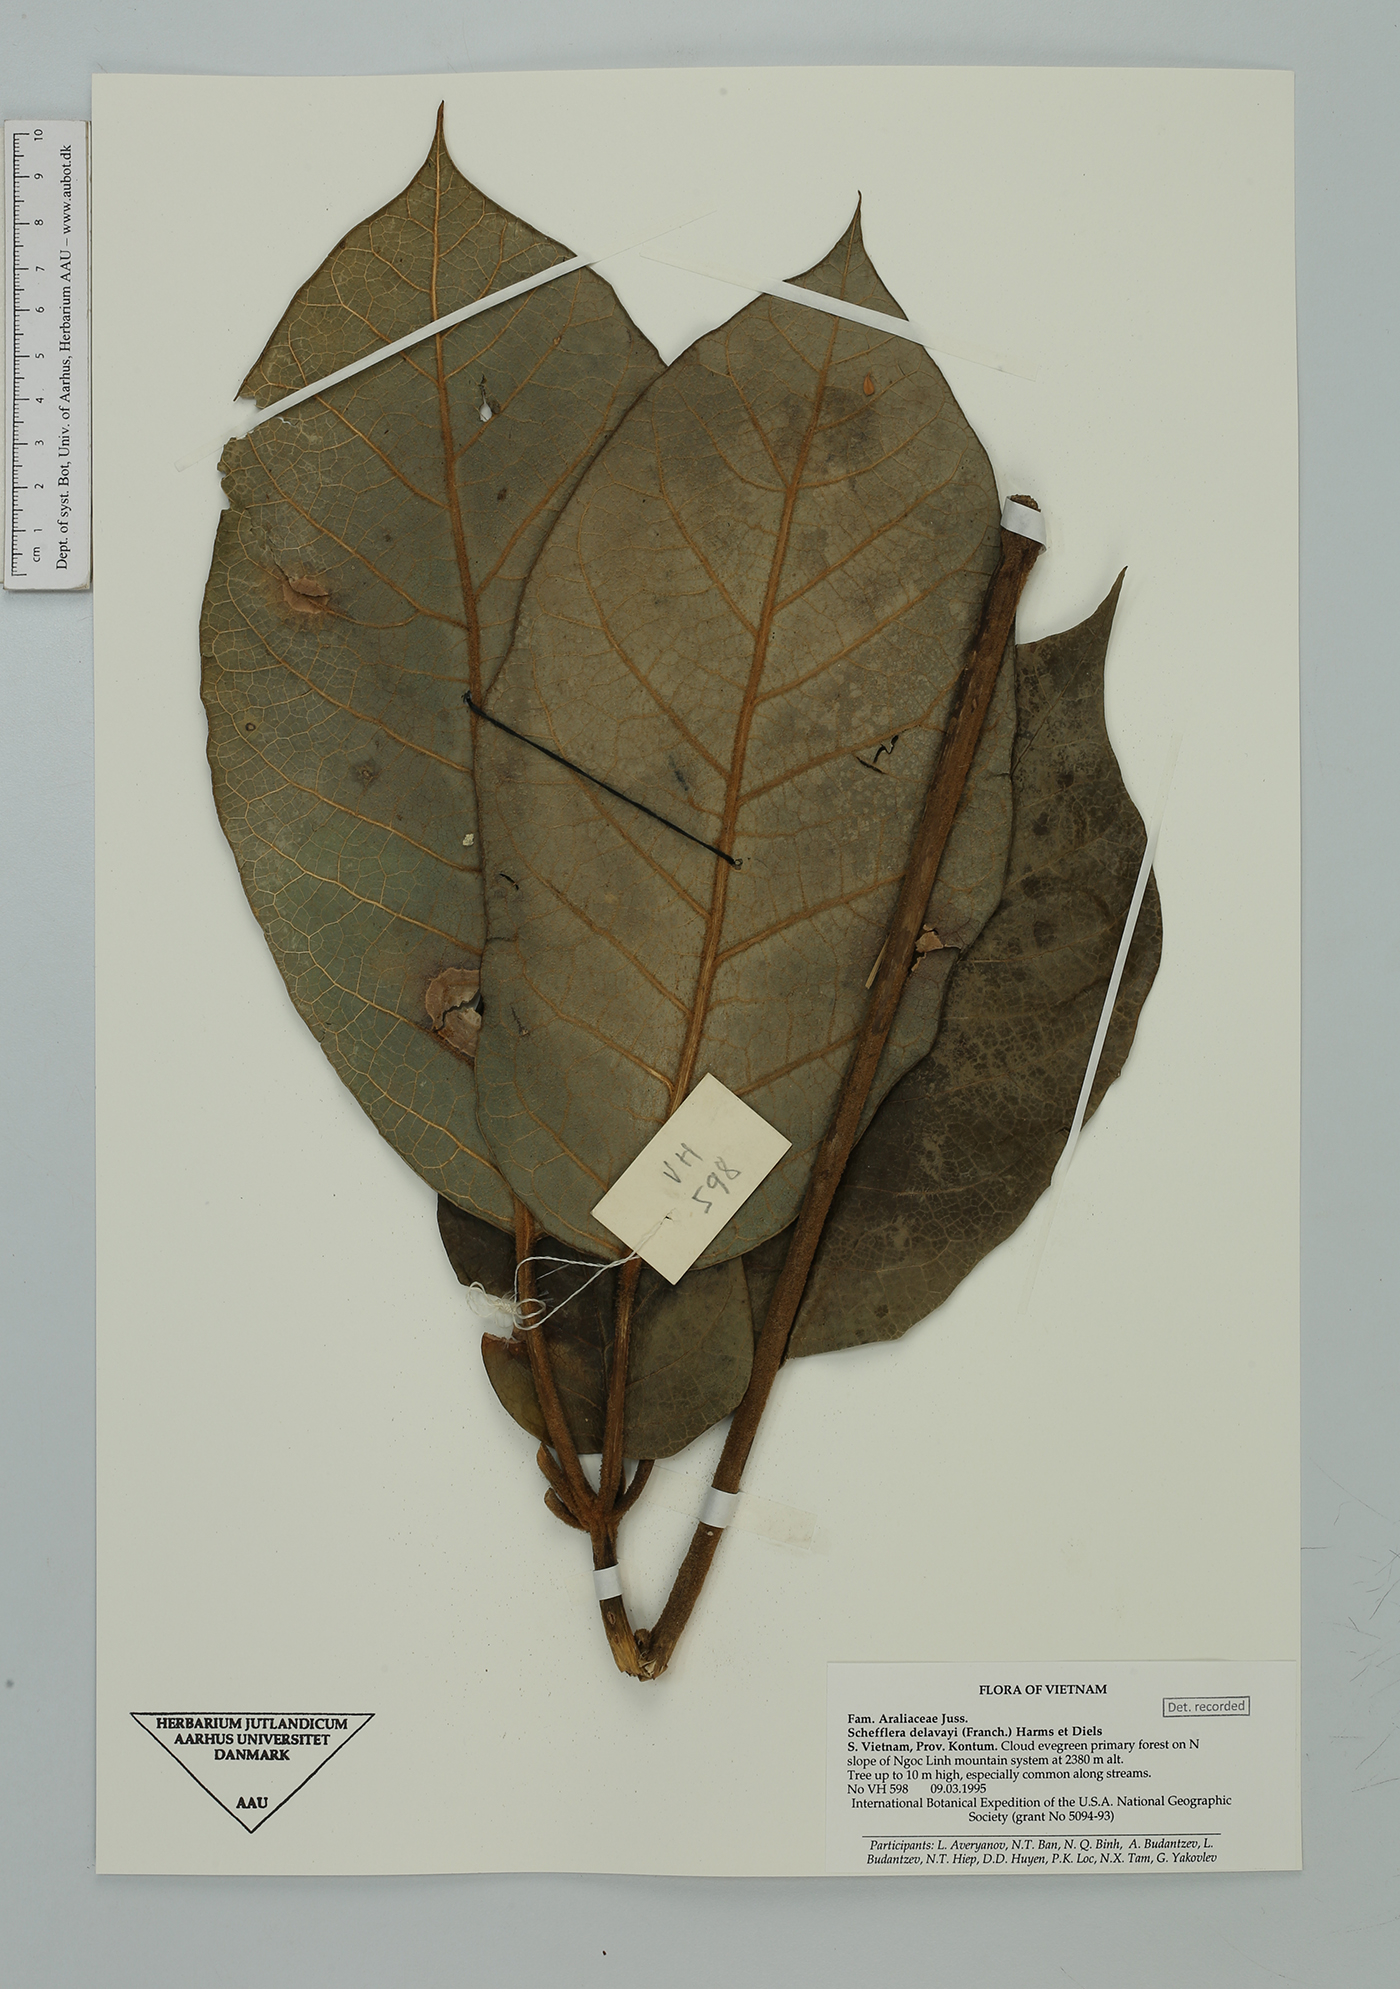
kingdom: Plantae
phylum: Tracheophyta
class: Magnoliopsida
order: Apiales
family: Araliaceae
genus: Heptapleurum
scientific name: Heptapleurum delavayi
